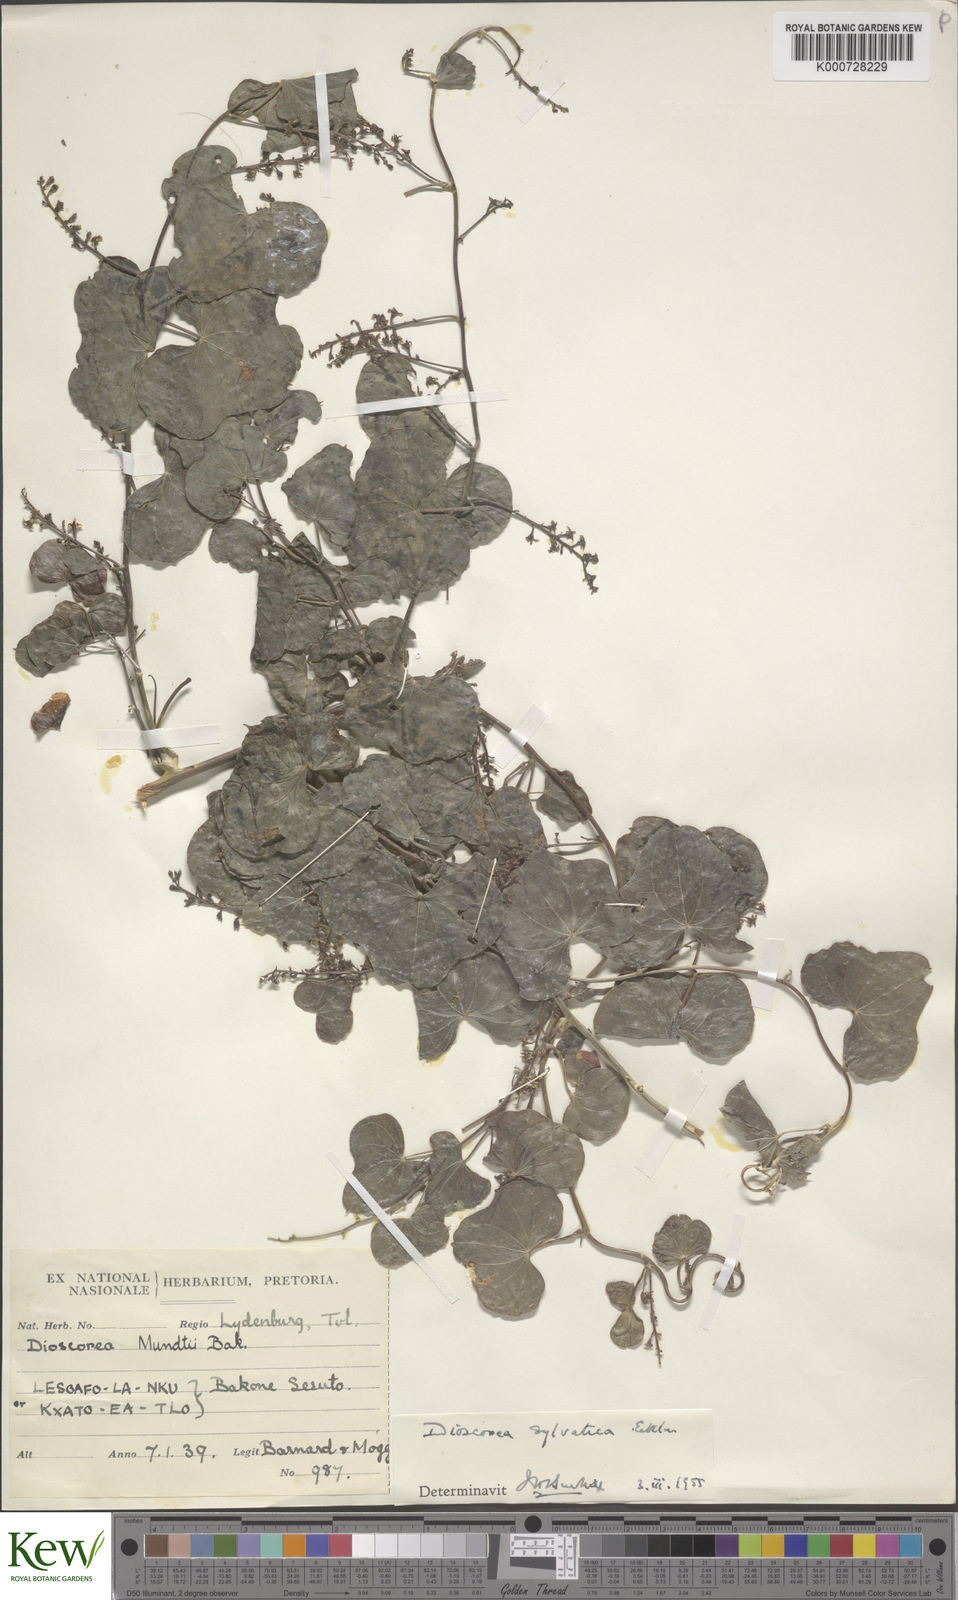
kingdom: Plantae
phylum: Tracheophyta
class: Liliopsida
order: Dioscoreales
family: Dioscoreaceae
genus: Dioscorea
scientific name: Dioscorea sylvatica
